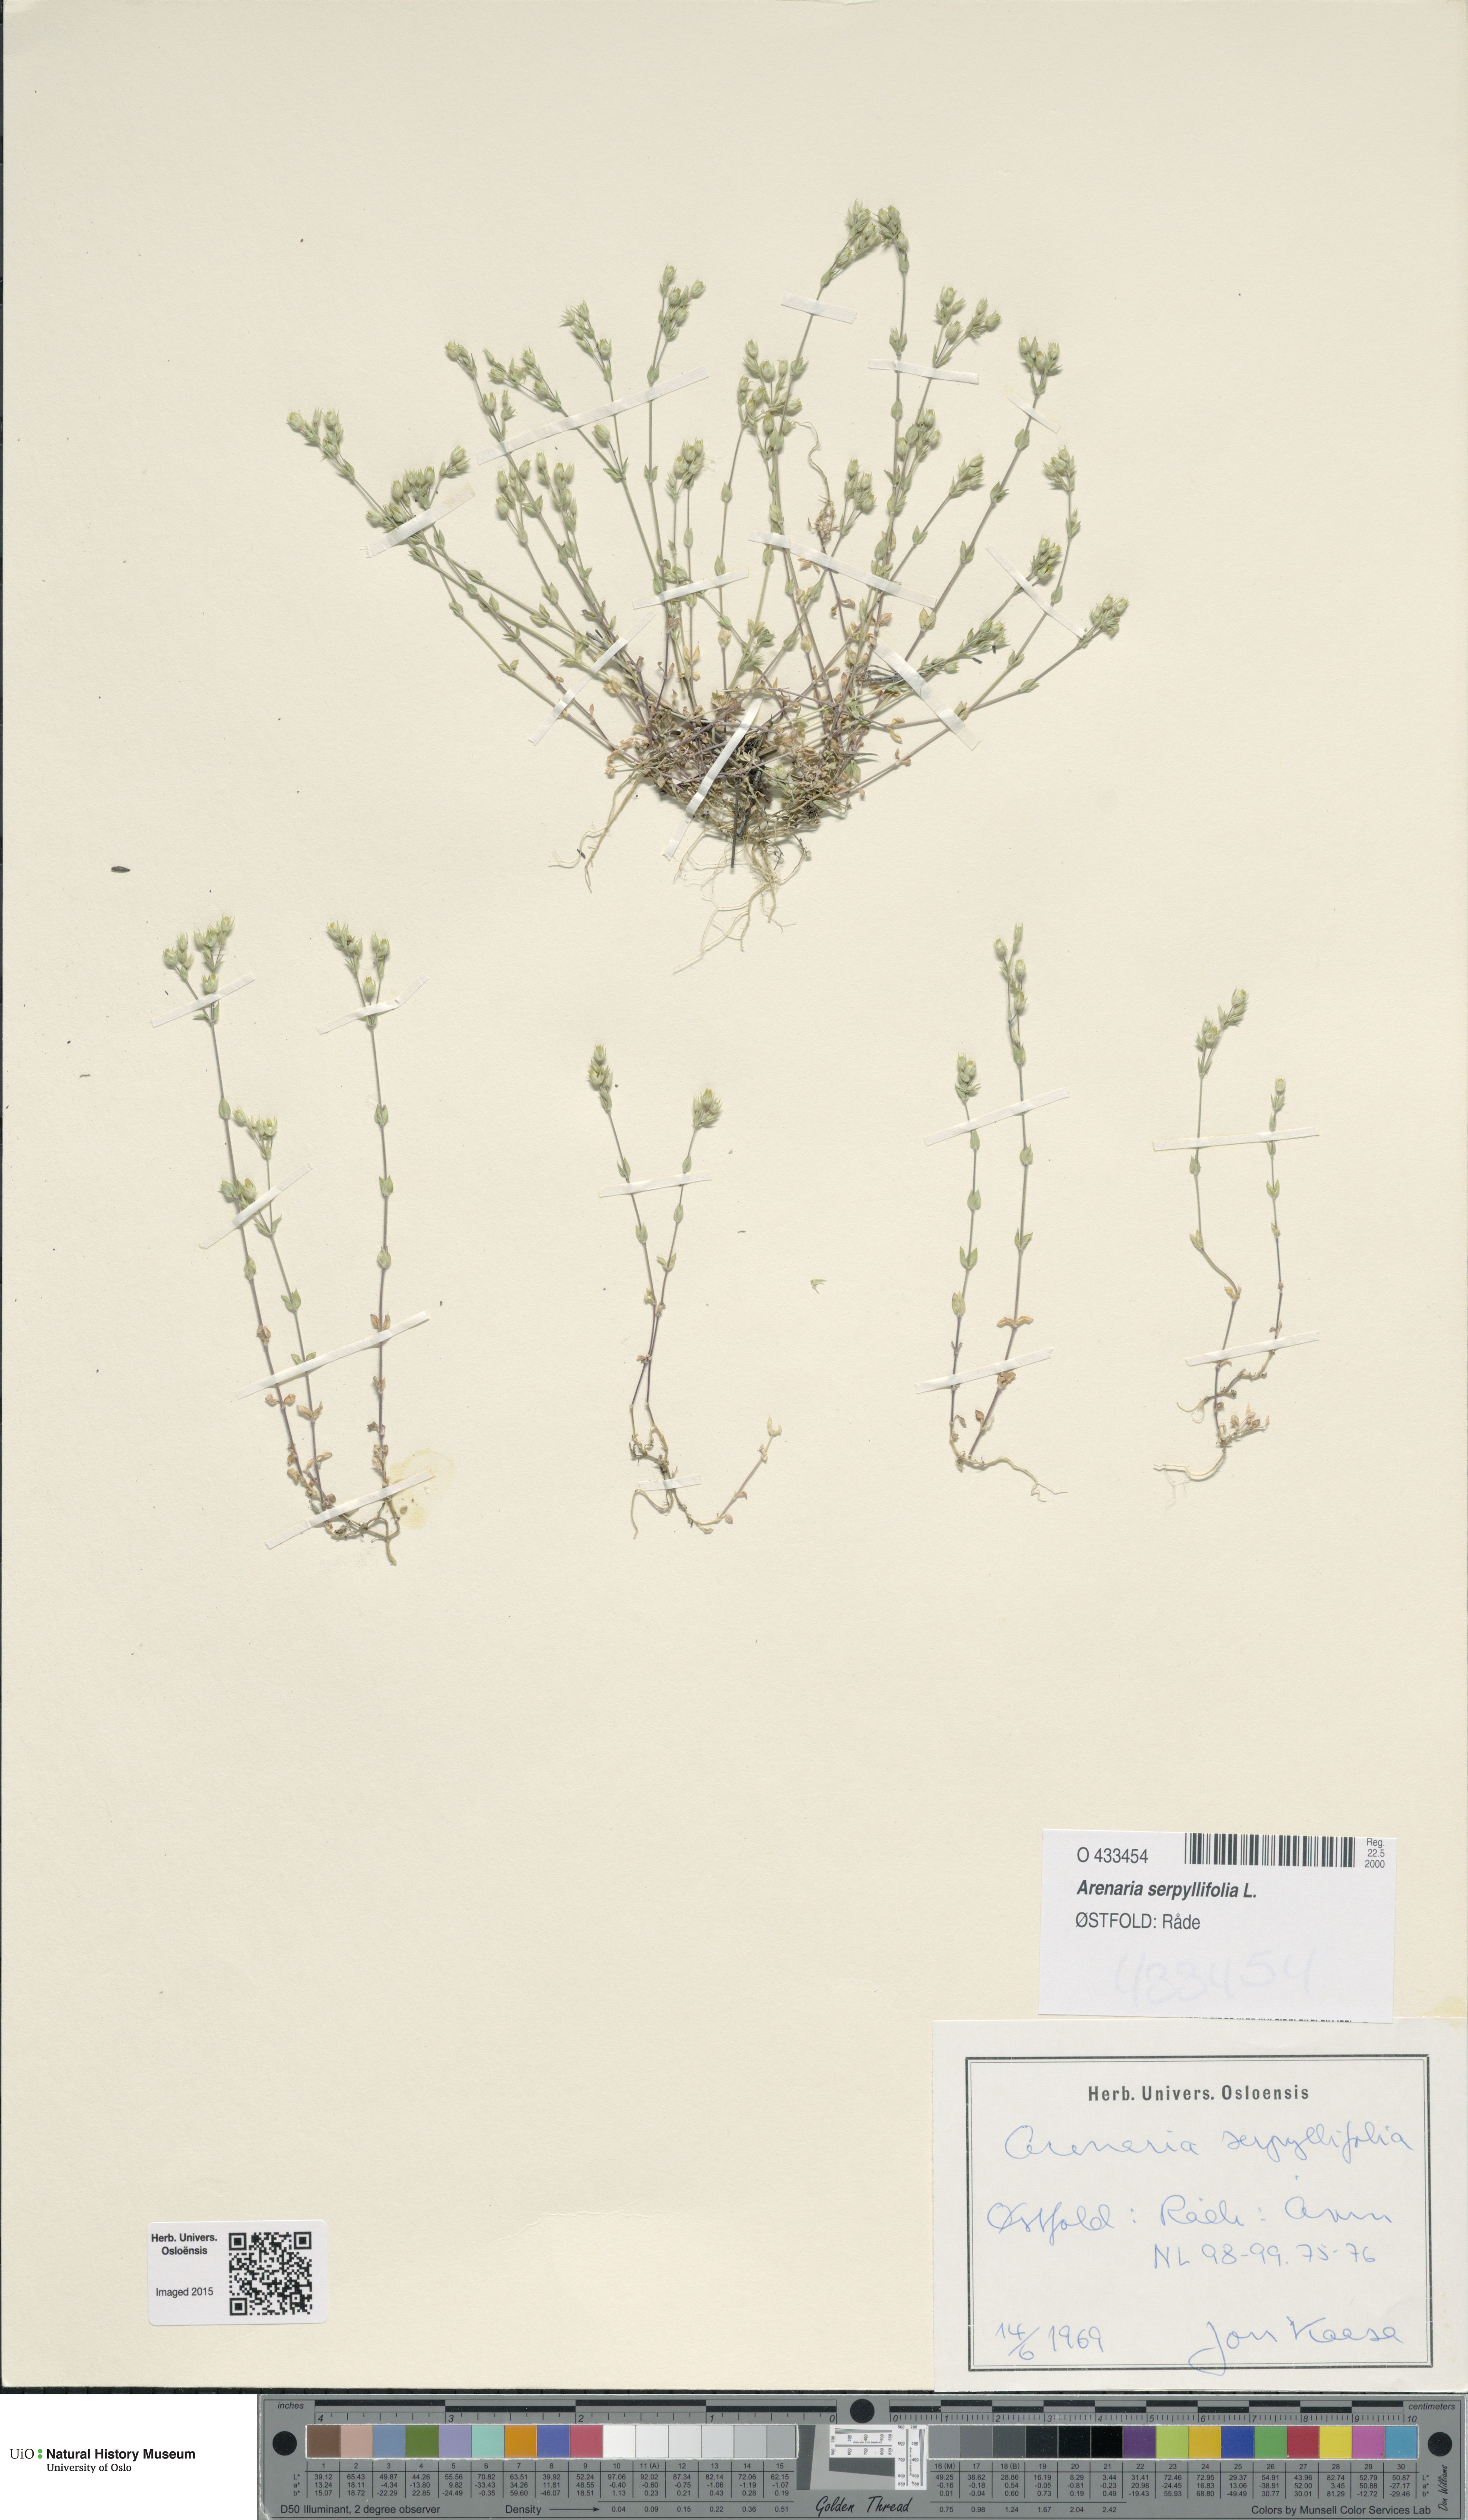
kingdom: Plantae
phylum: Tracheophyta
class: Magnoliopsida
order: Caryophyllales
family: Caryophyllaceae
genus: Arenaria
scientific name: Arenaria serpyllifolia
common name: Thyme-leaved sandwort
